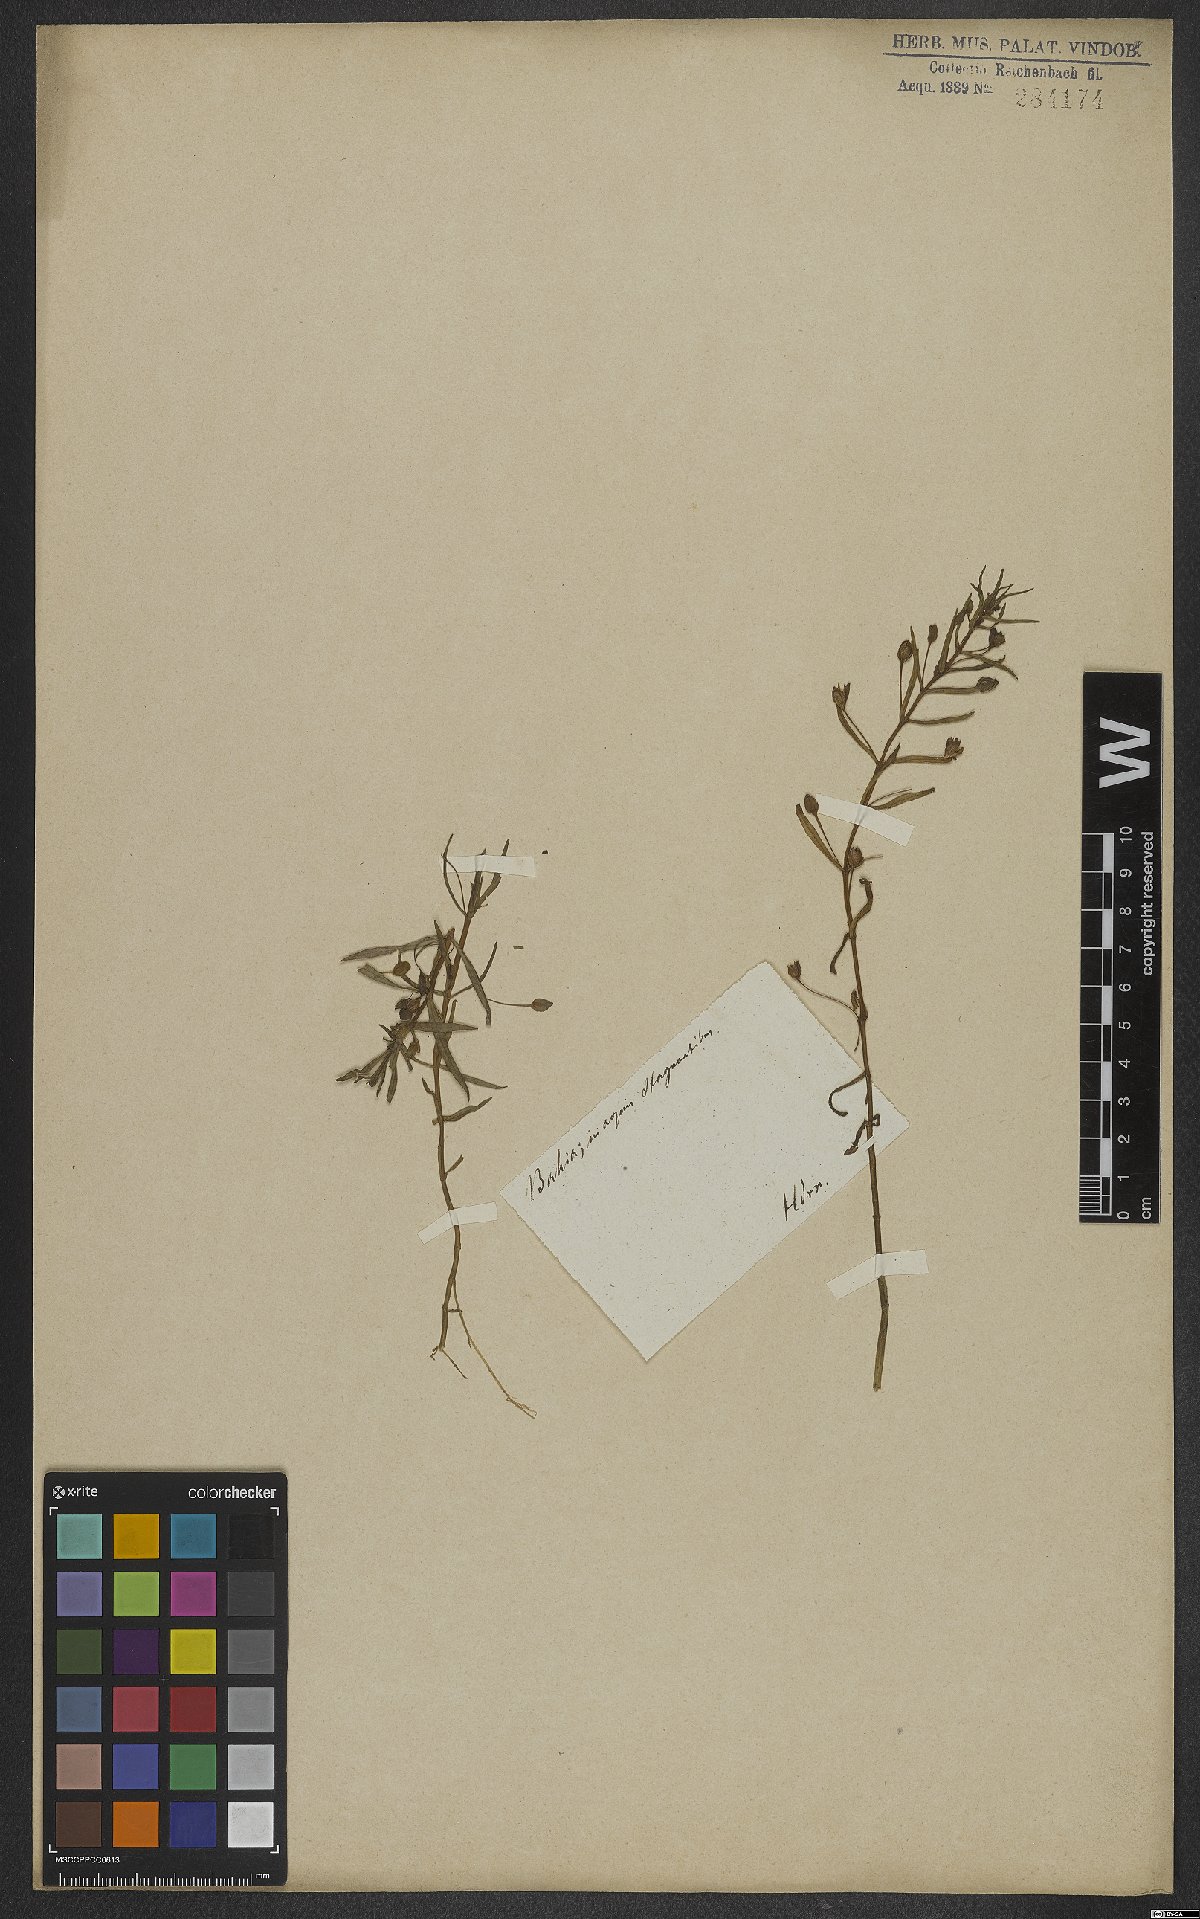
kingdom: Plantae
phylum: Tracheophyta
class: Magnoliopsida
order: Lamiales
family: Scrophulariaceae
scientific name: Scrophulariaceae
